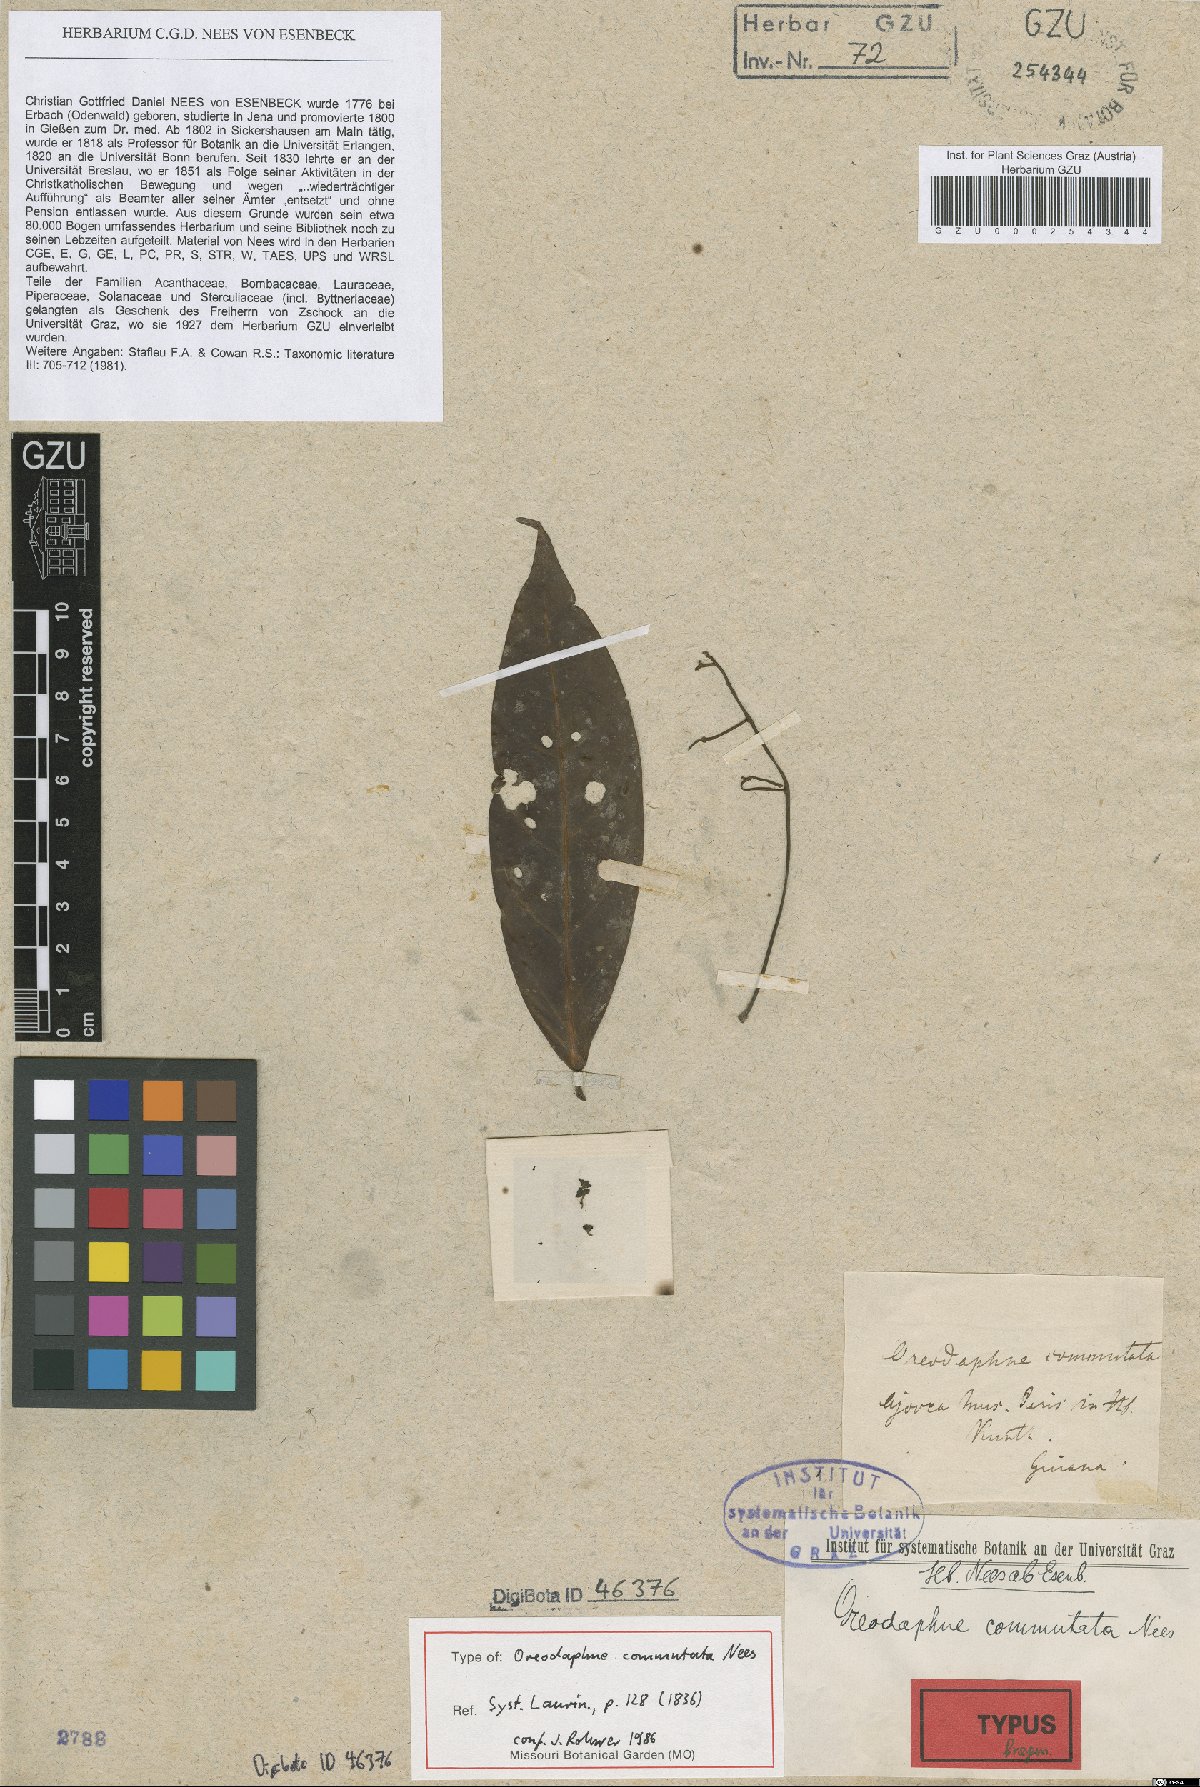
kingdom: Plantae
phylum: Tracheophyta
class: Magnoliopsida
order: Laurales
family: Lauraceae
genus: Ocotea
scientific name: Ocotea commutata
